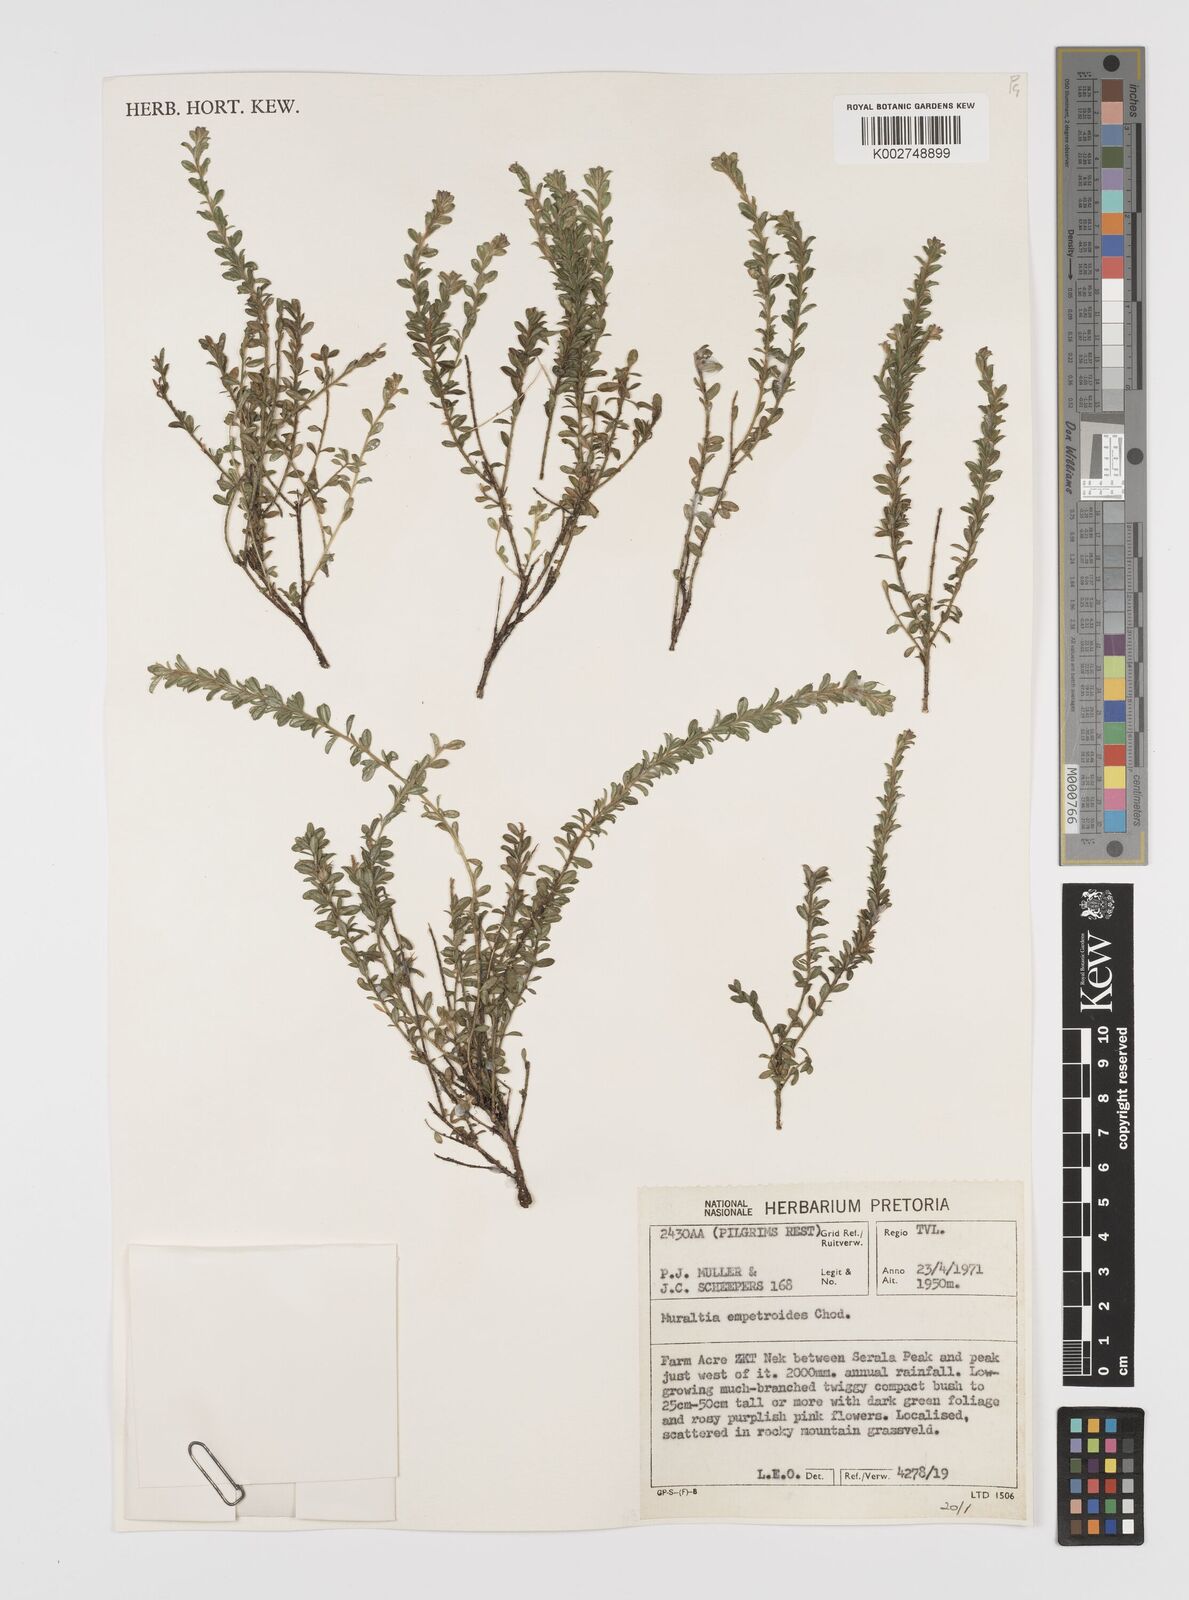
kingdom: Plantae
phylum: Tracheophyta
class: Magnoliopsida
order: Fabales
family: Polygalaceae
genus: Muraltia
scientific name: Muraltia empetroides
